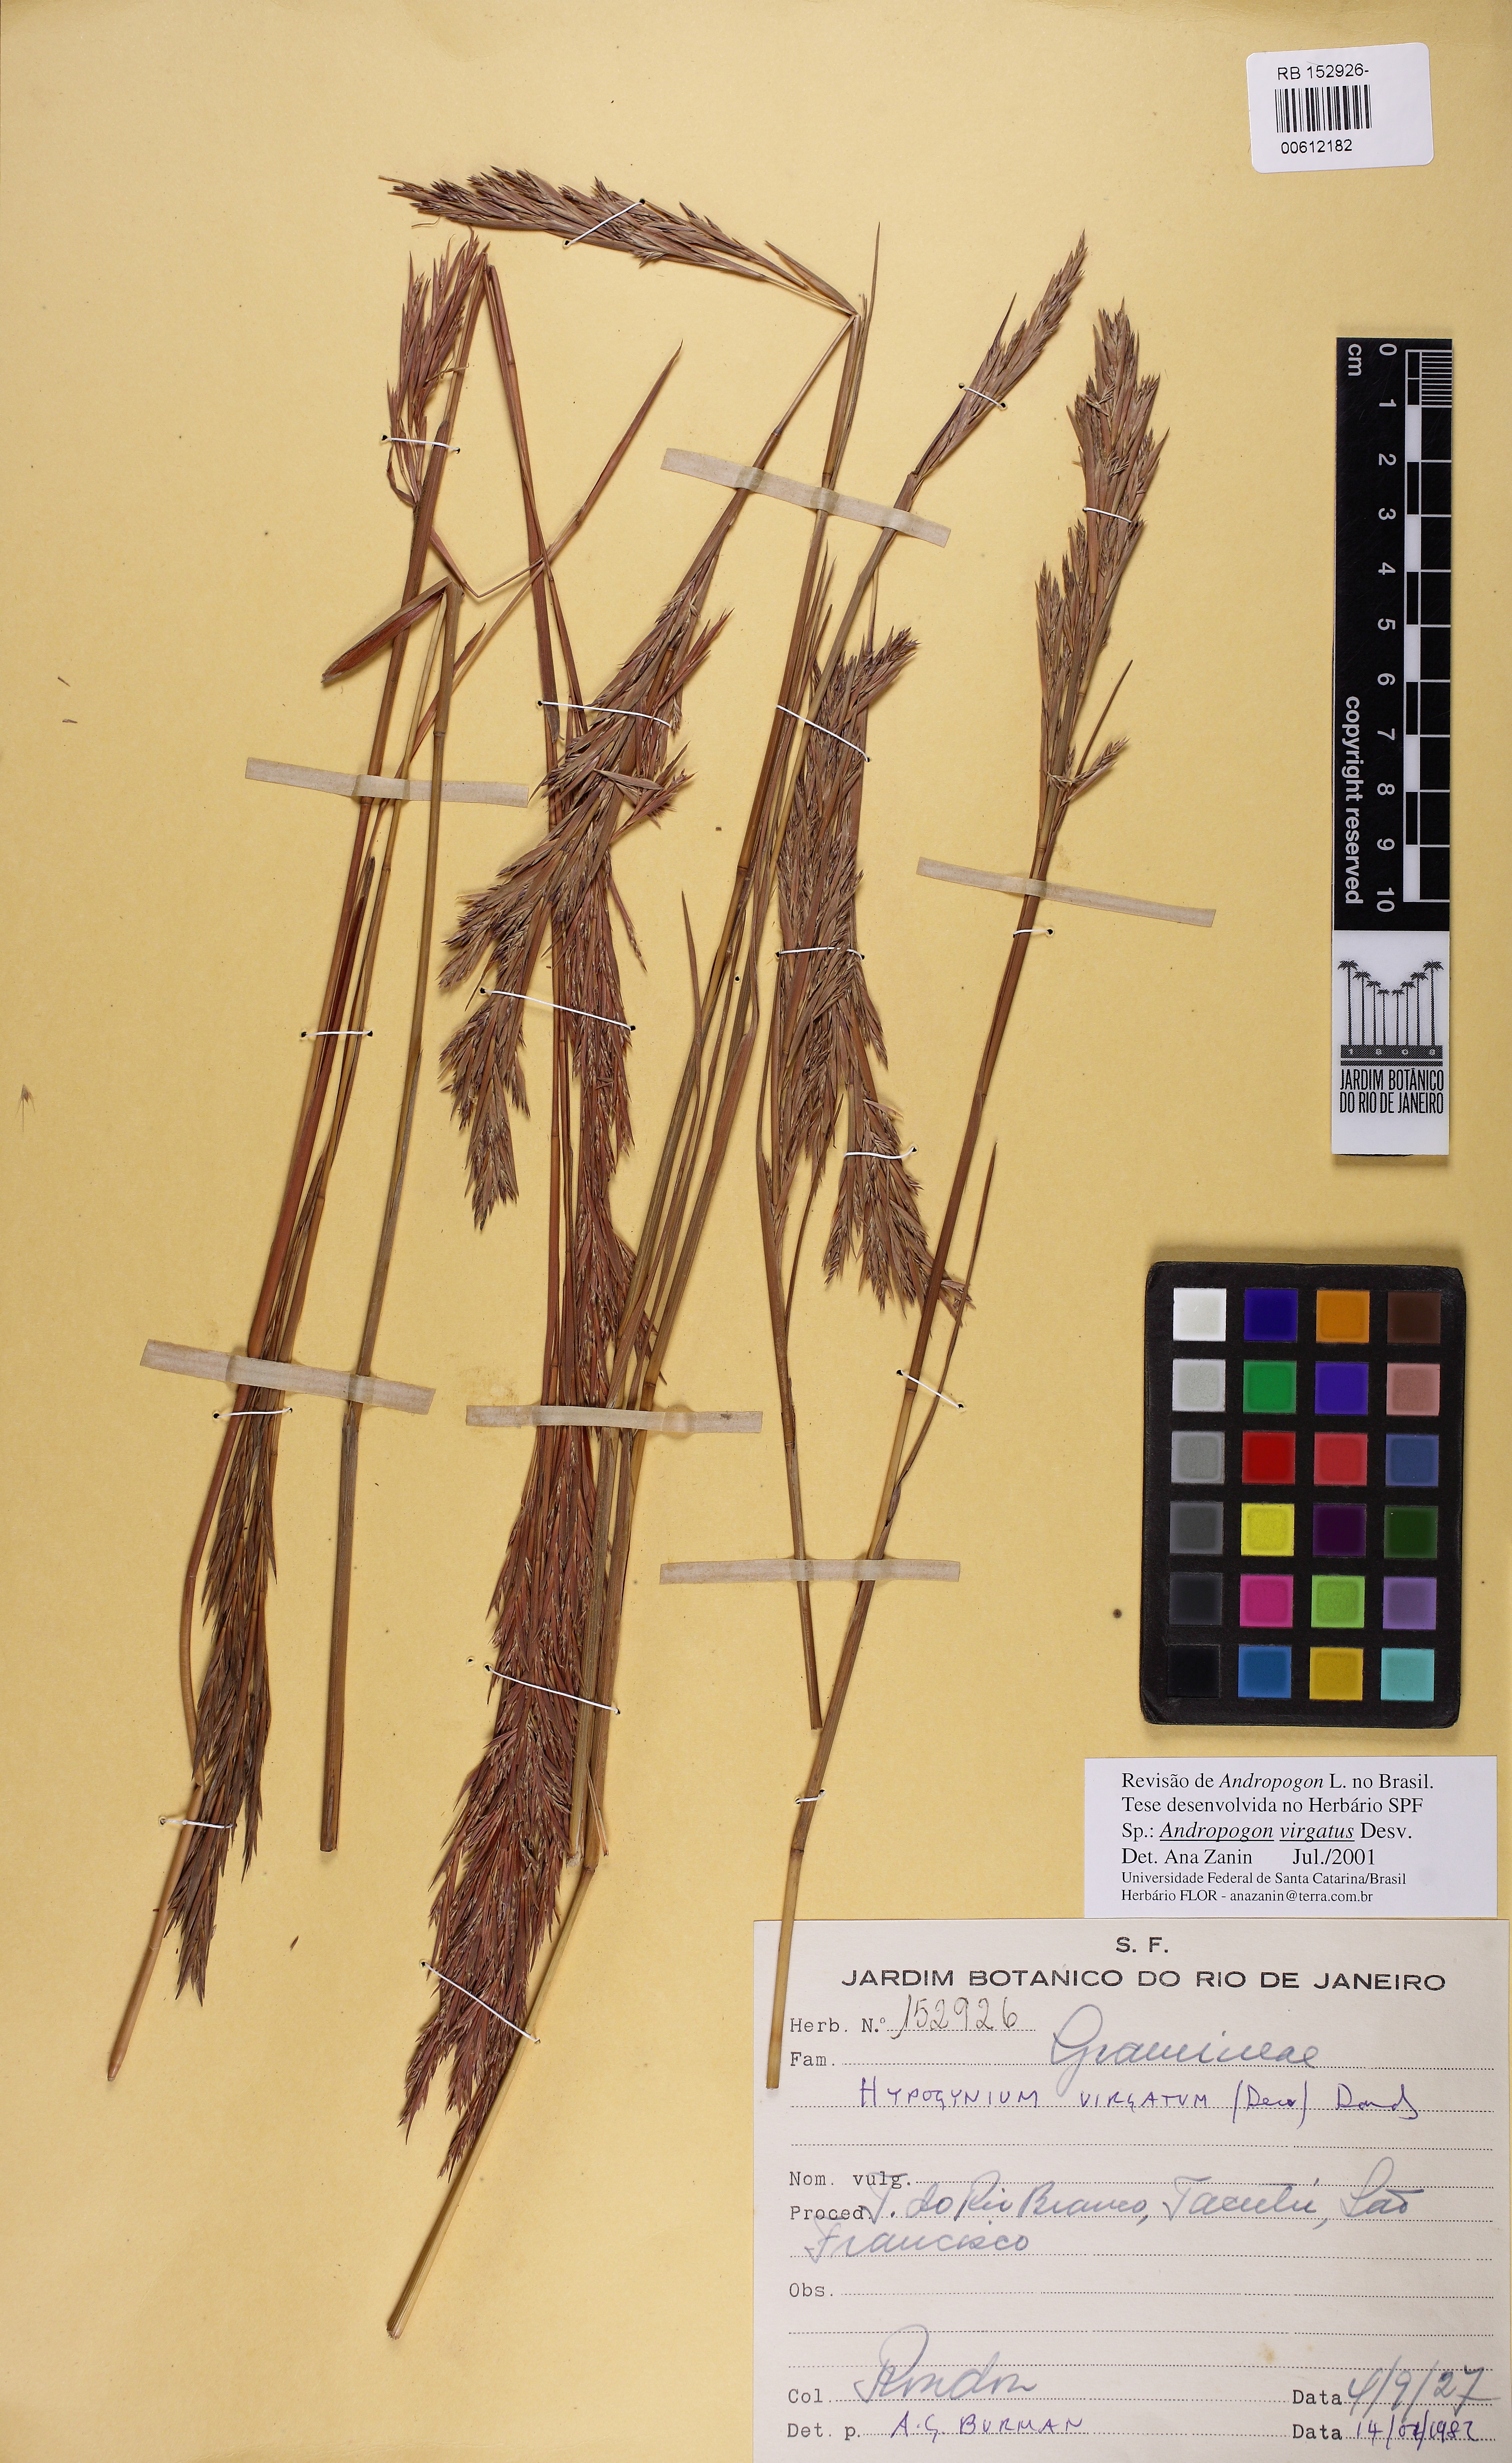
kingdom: Plantae
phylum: Tracheophyta
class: Liliopsida
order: Poales
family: Poaceae
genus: Andropogon
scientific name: Andropogon virgatus
